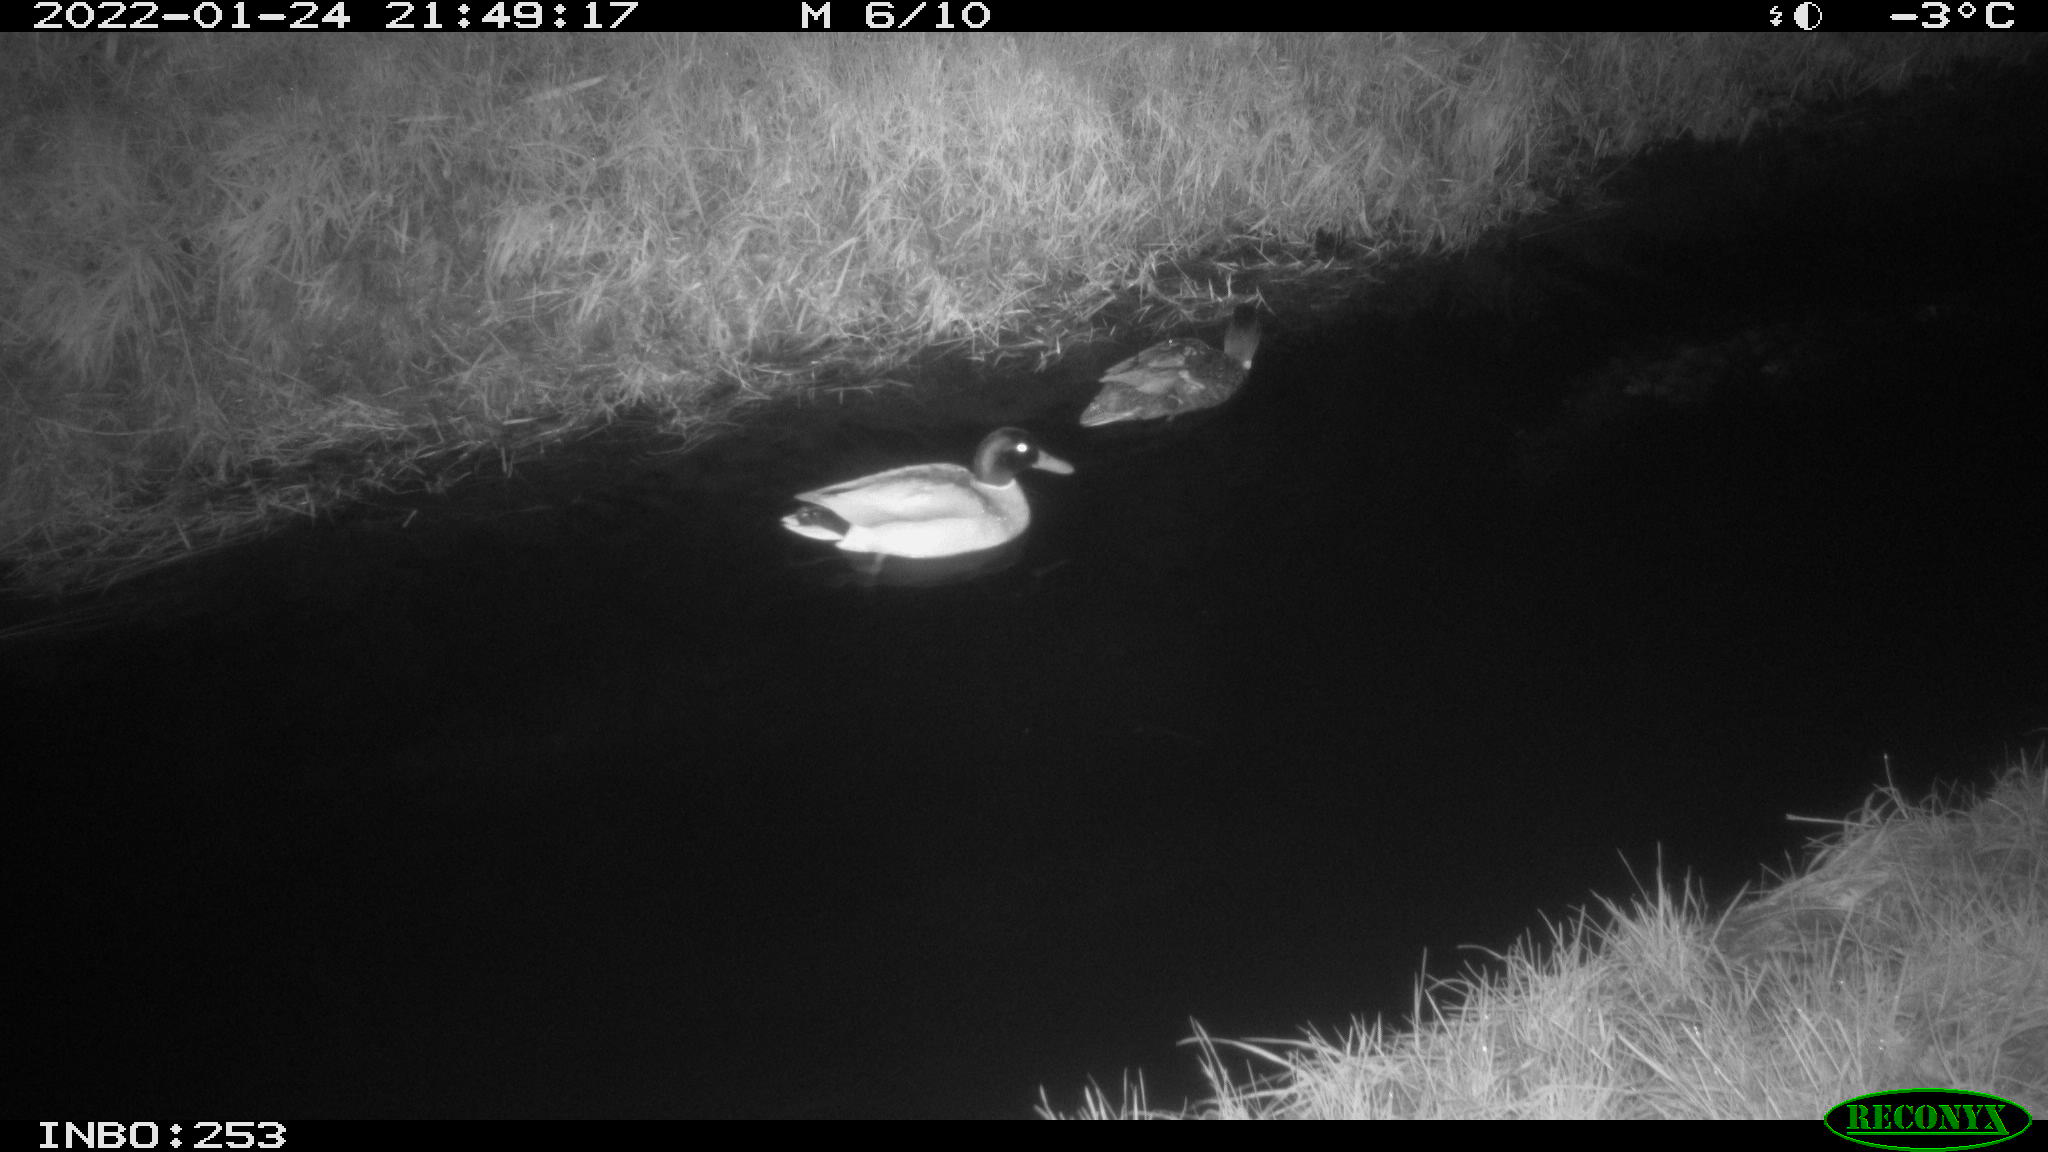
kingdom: Animalia
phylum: Chordata
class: Aves
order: Anseriformes
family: Anatidae
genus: Anas
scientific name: Anas
